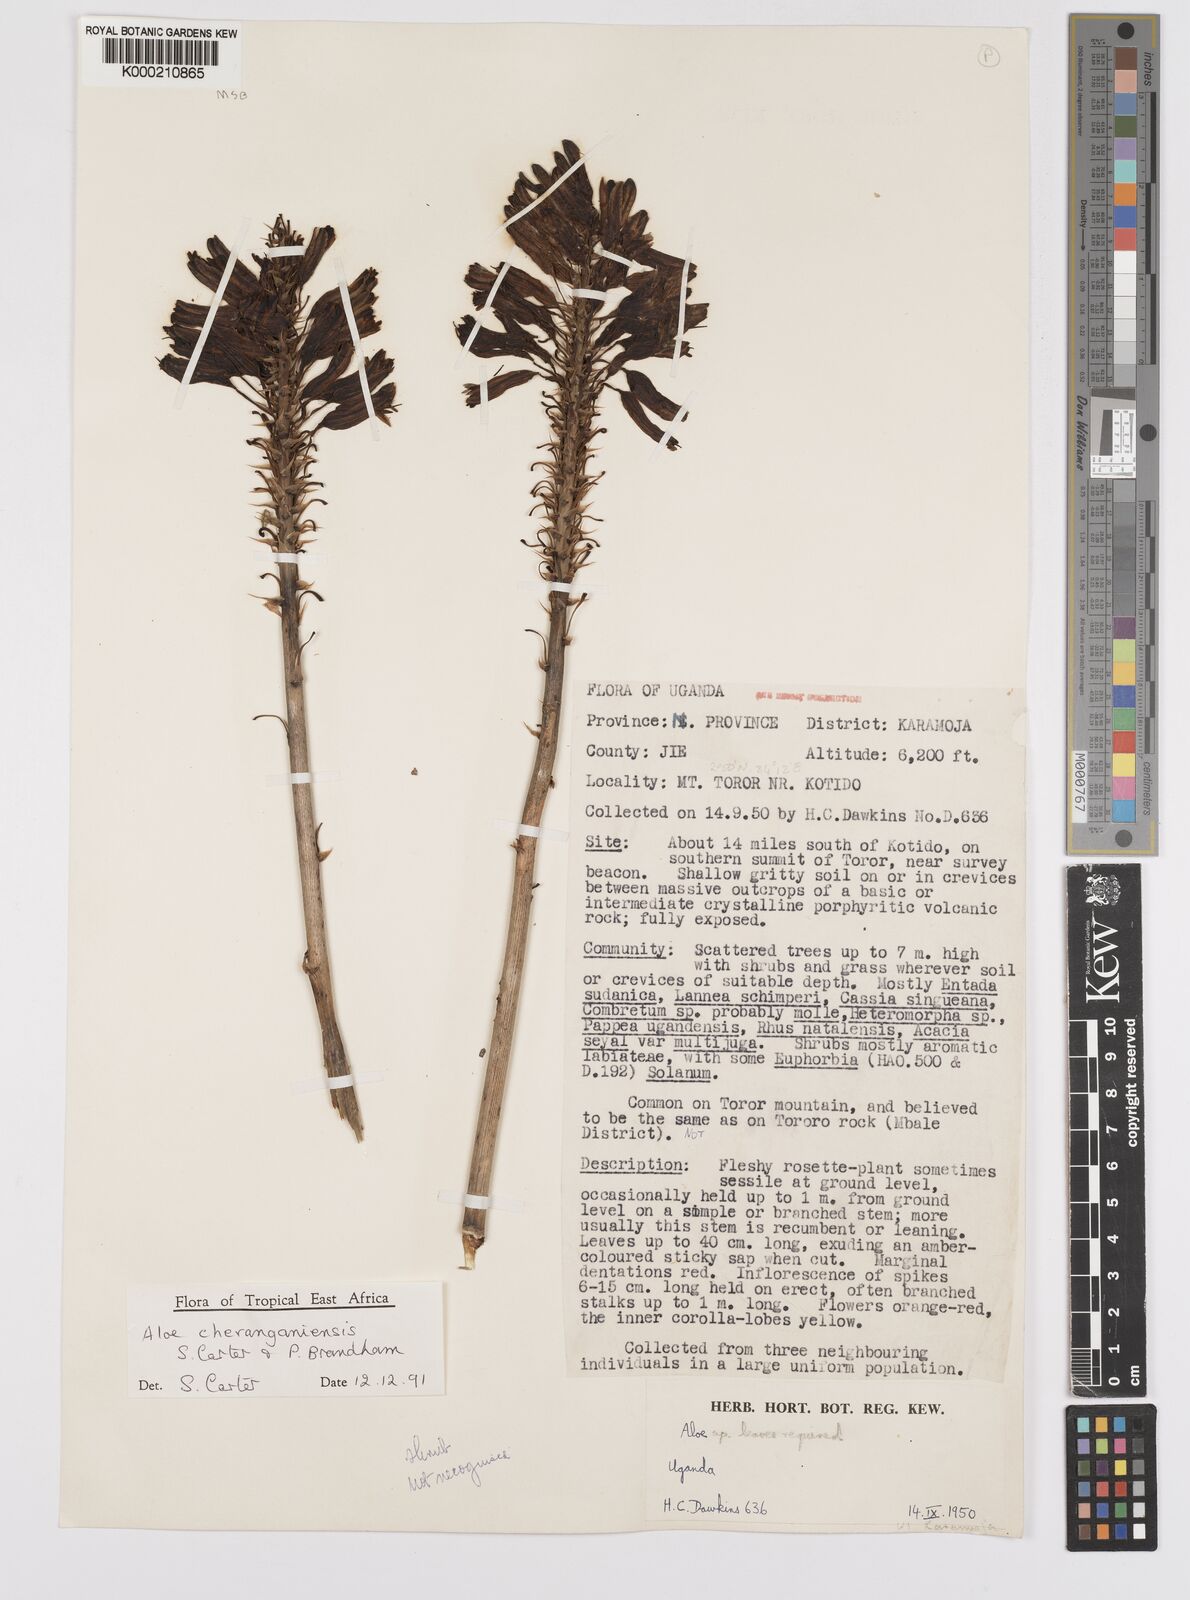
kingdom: Plantae
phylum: Tracheophyta
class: Liliopsida
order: Asparagales
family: Asphodelaceae
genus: Aloe
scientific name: Aloe cheranganiensis
